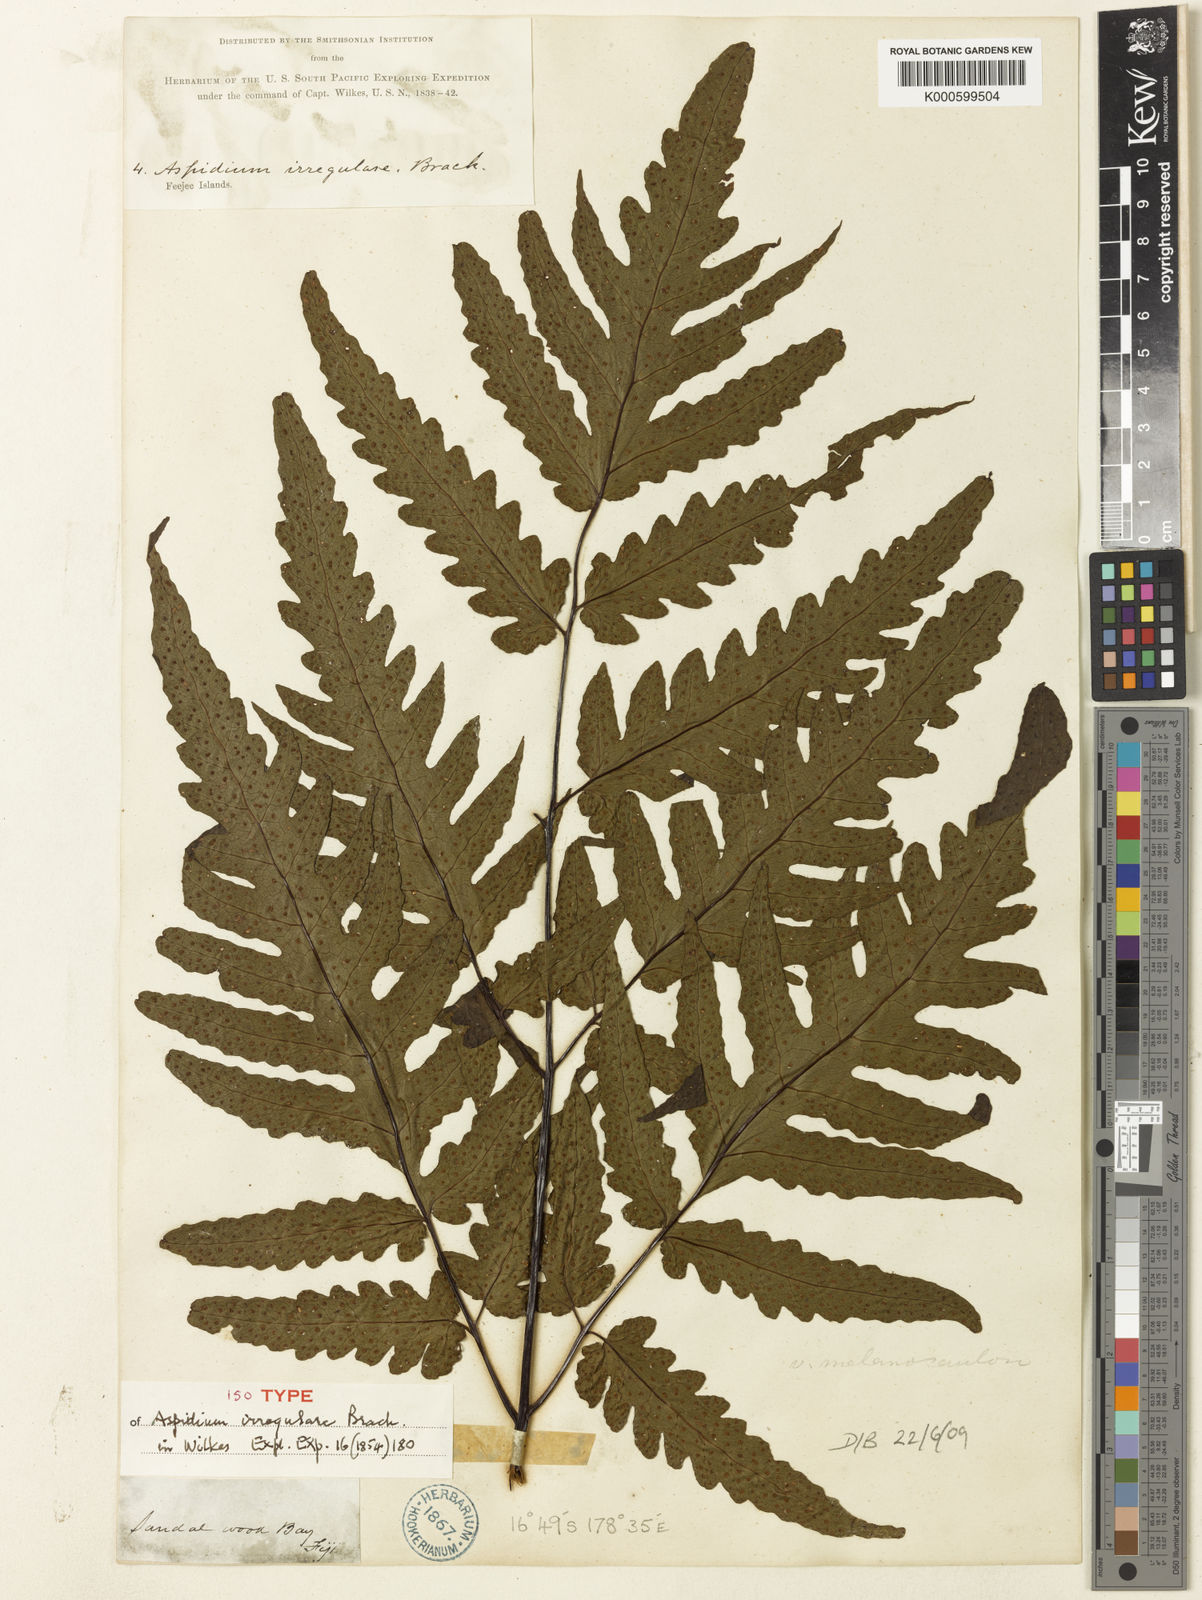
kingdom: Plantae
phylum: Tracheophyta
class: Polypodiopsida
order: Polypodiales
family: Tectariaceae
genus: Tectaria
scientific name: Tectaria latifolia
